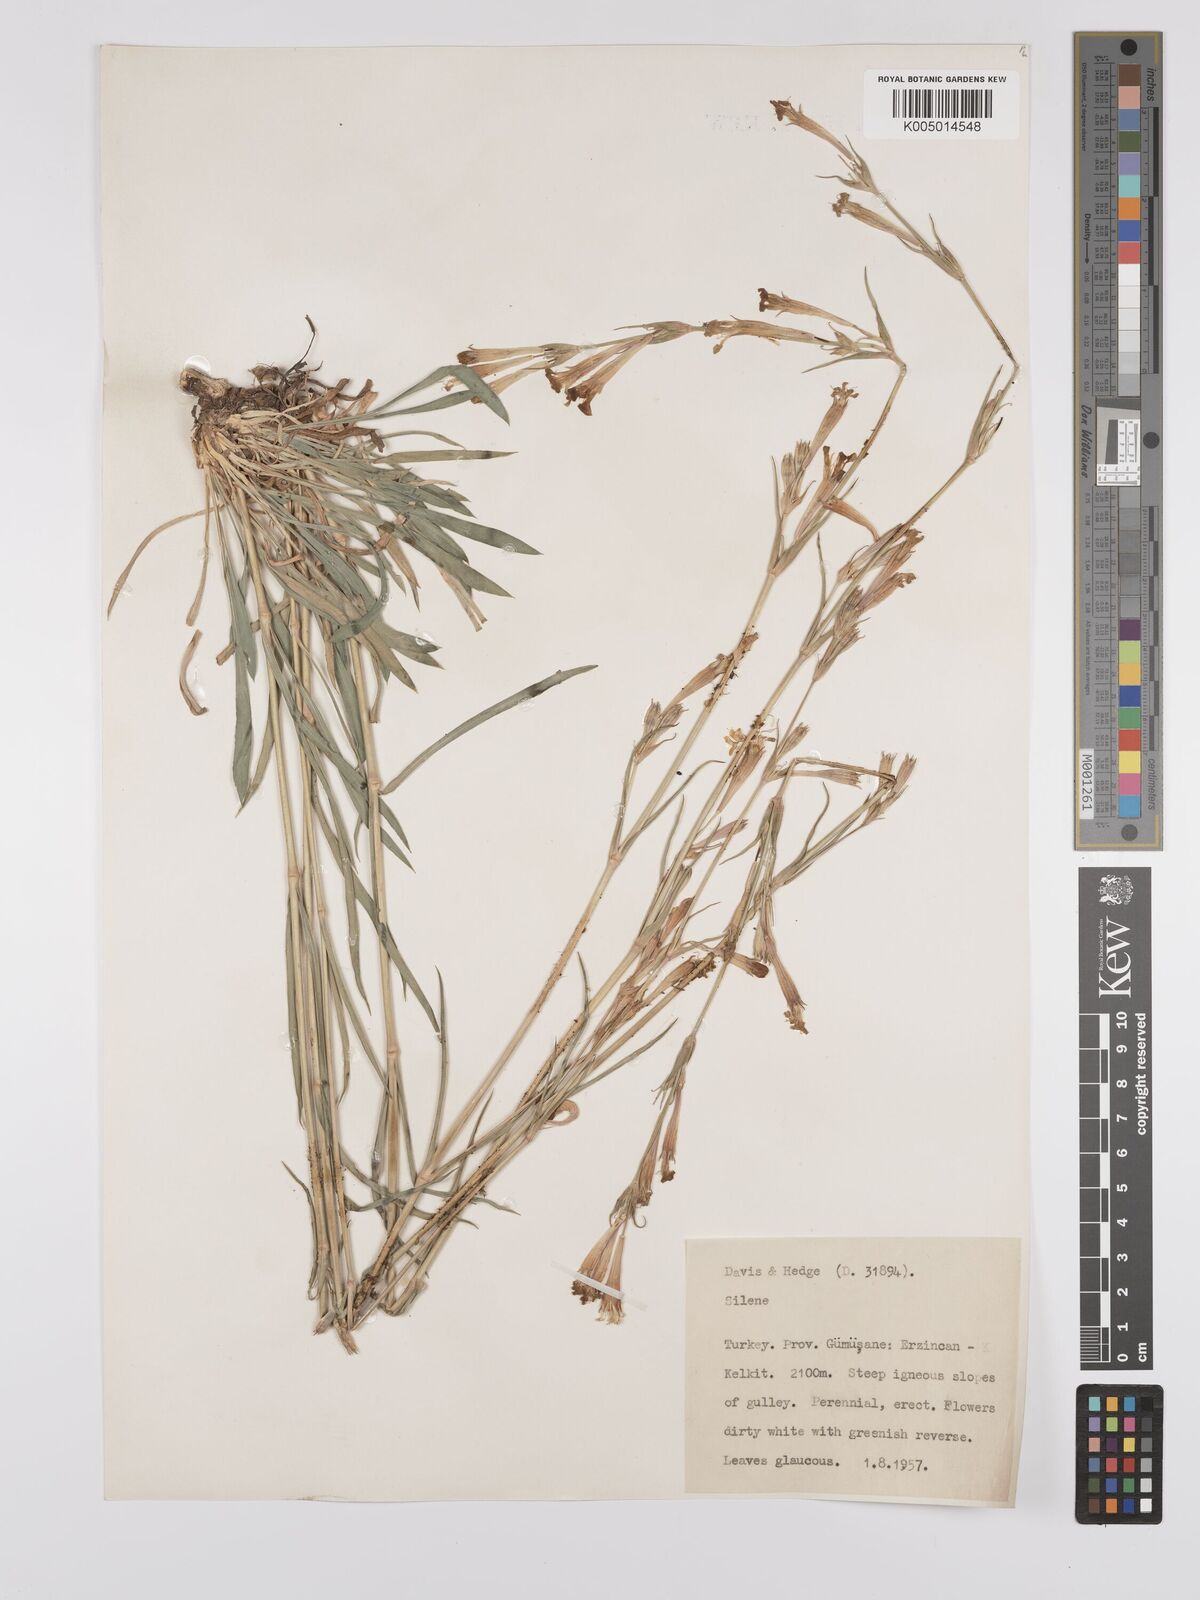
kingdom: Plantae
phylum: Tracheophyta
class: Magnoliopsida
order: Caryophyllales
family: Caryophyllaceae
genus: Silene
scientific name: Silene
